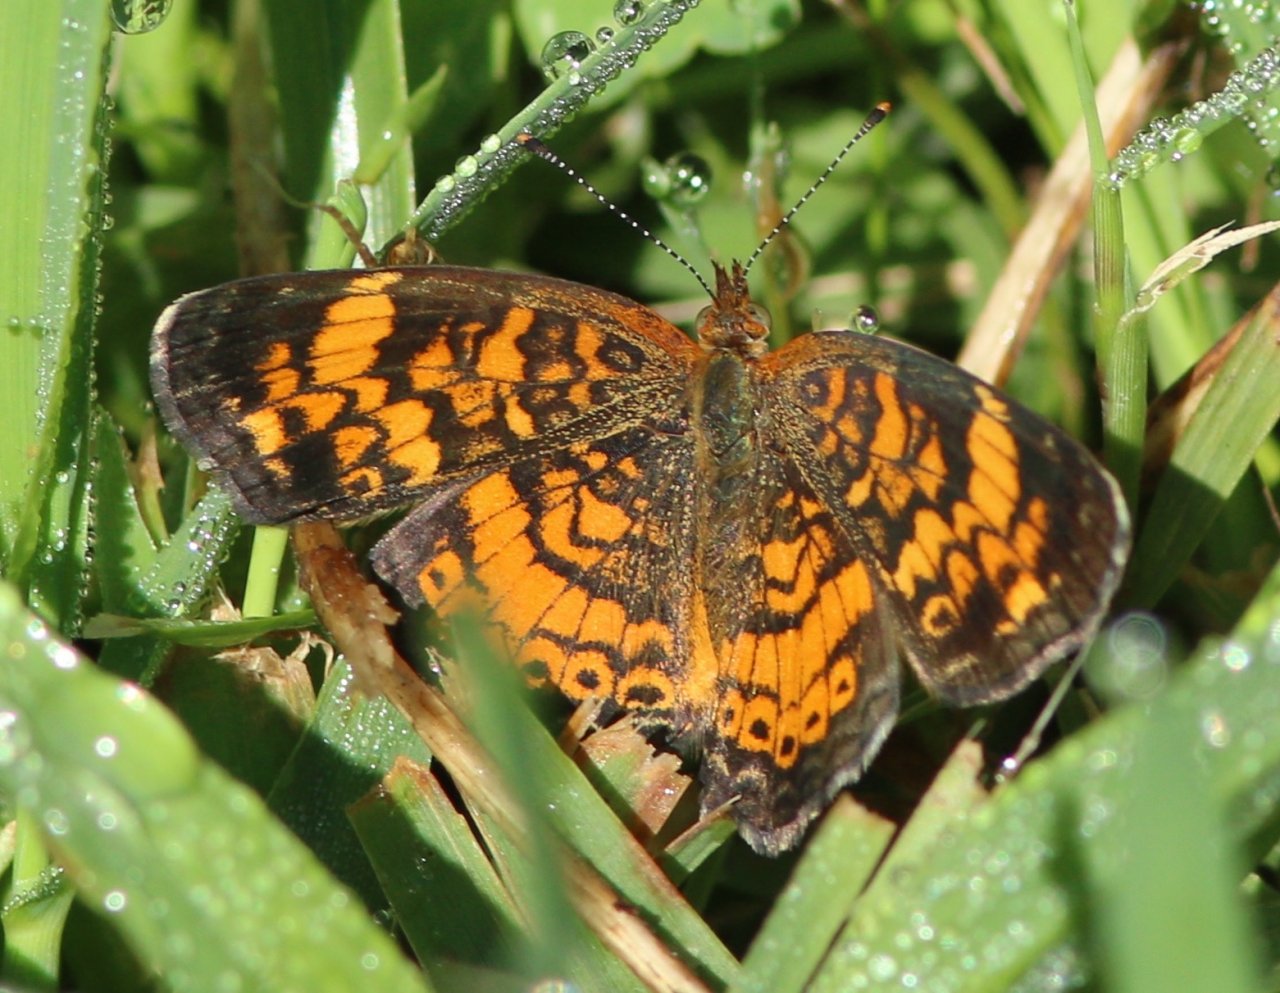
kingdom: Animalia
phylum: Arthropoda
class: Insecta
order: Lepidoptera
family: Nymphalidae
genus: Phyciodes
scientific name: Phyciodes tharos
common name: Pearl Crescent
